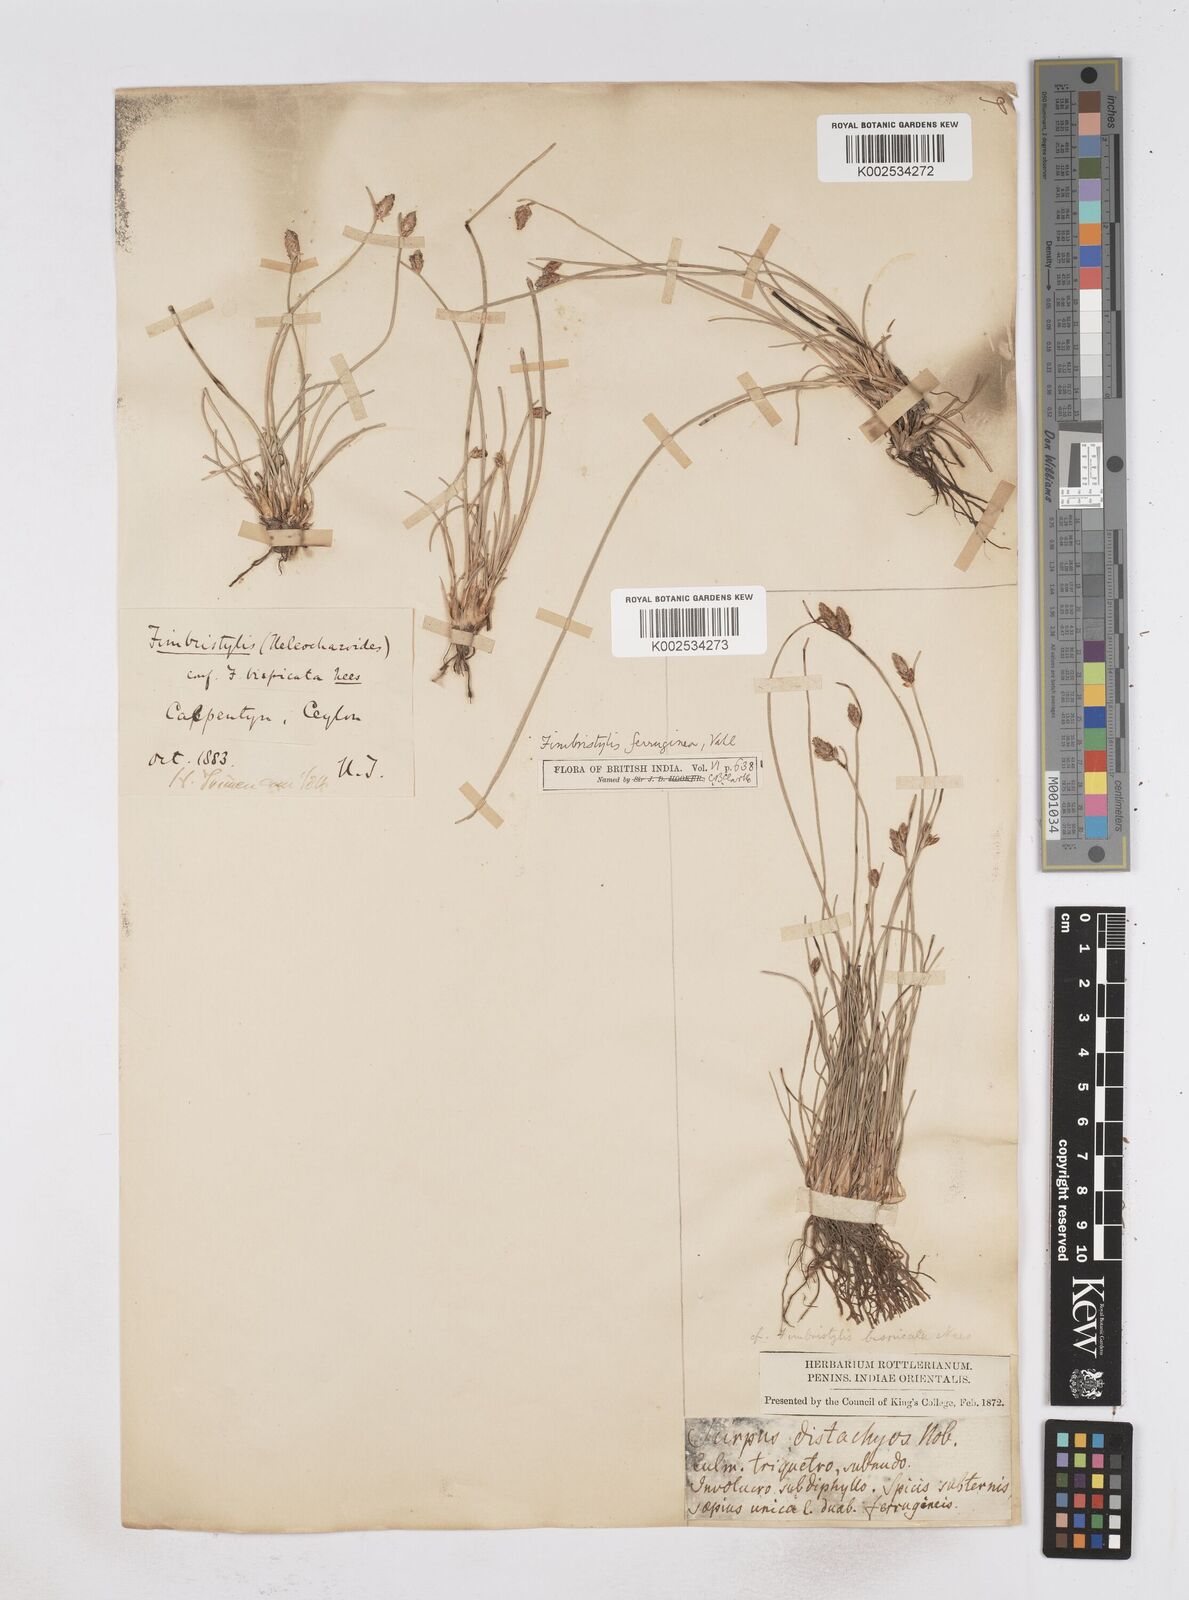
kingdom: Plantae
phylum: Tracheophyta
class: Liliopsida
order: Poales
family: Cyperaceae
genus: Fimbristylis
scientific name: Fimbristylis ferruginea
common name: West indian fimbry
